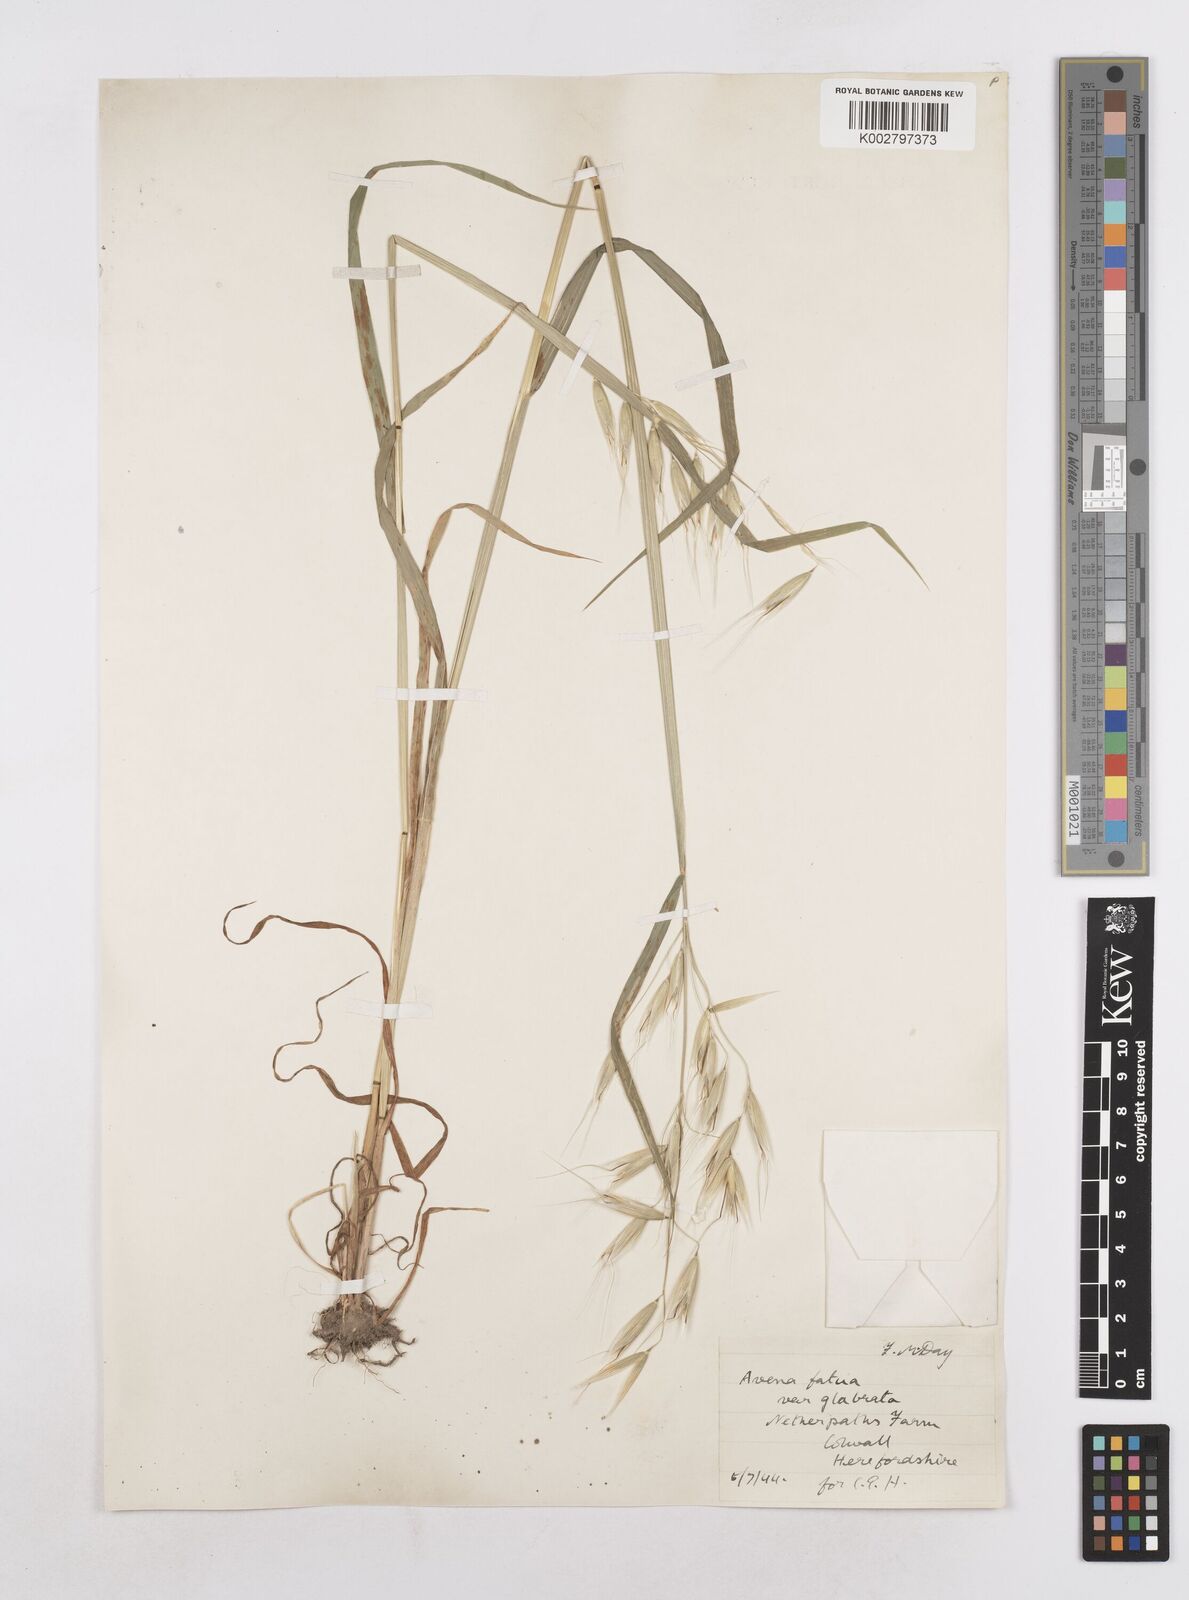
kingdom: Plantae
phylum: Tracheophyta
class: Liliopsida
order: Poales
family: Poaceae
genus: Avena
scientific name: Avena fatua
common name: Wild oat
